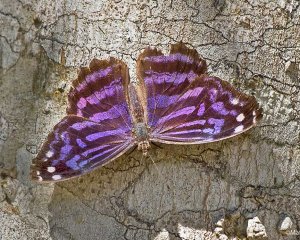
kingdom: Animalia
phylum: Arthropoda
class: Insecta
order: Lepidoptera
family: Nymphalidae
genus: Myscelia
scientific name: Myscelia ethusa
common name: Mexican Bluewing
